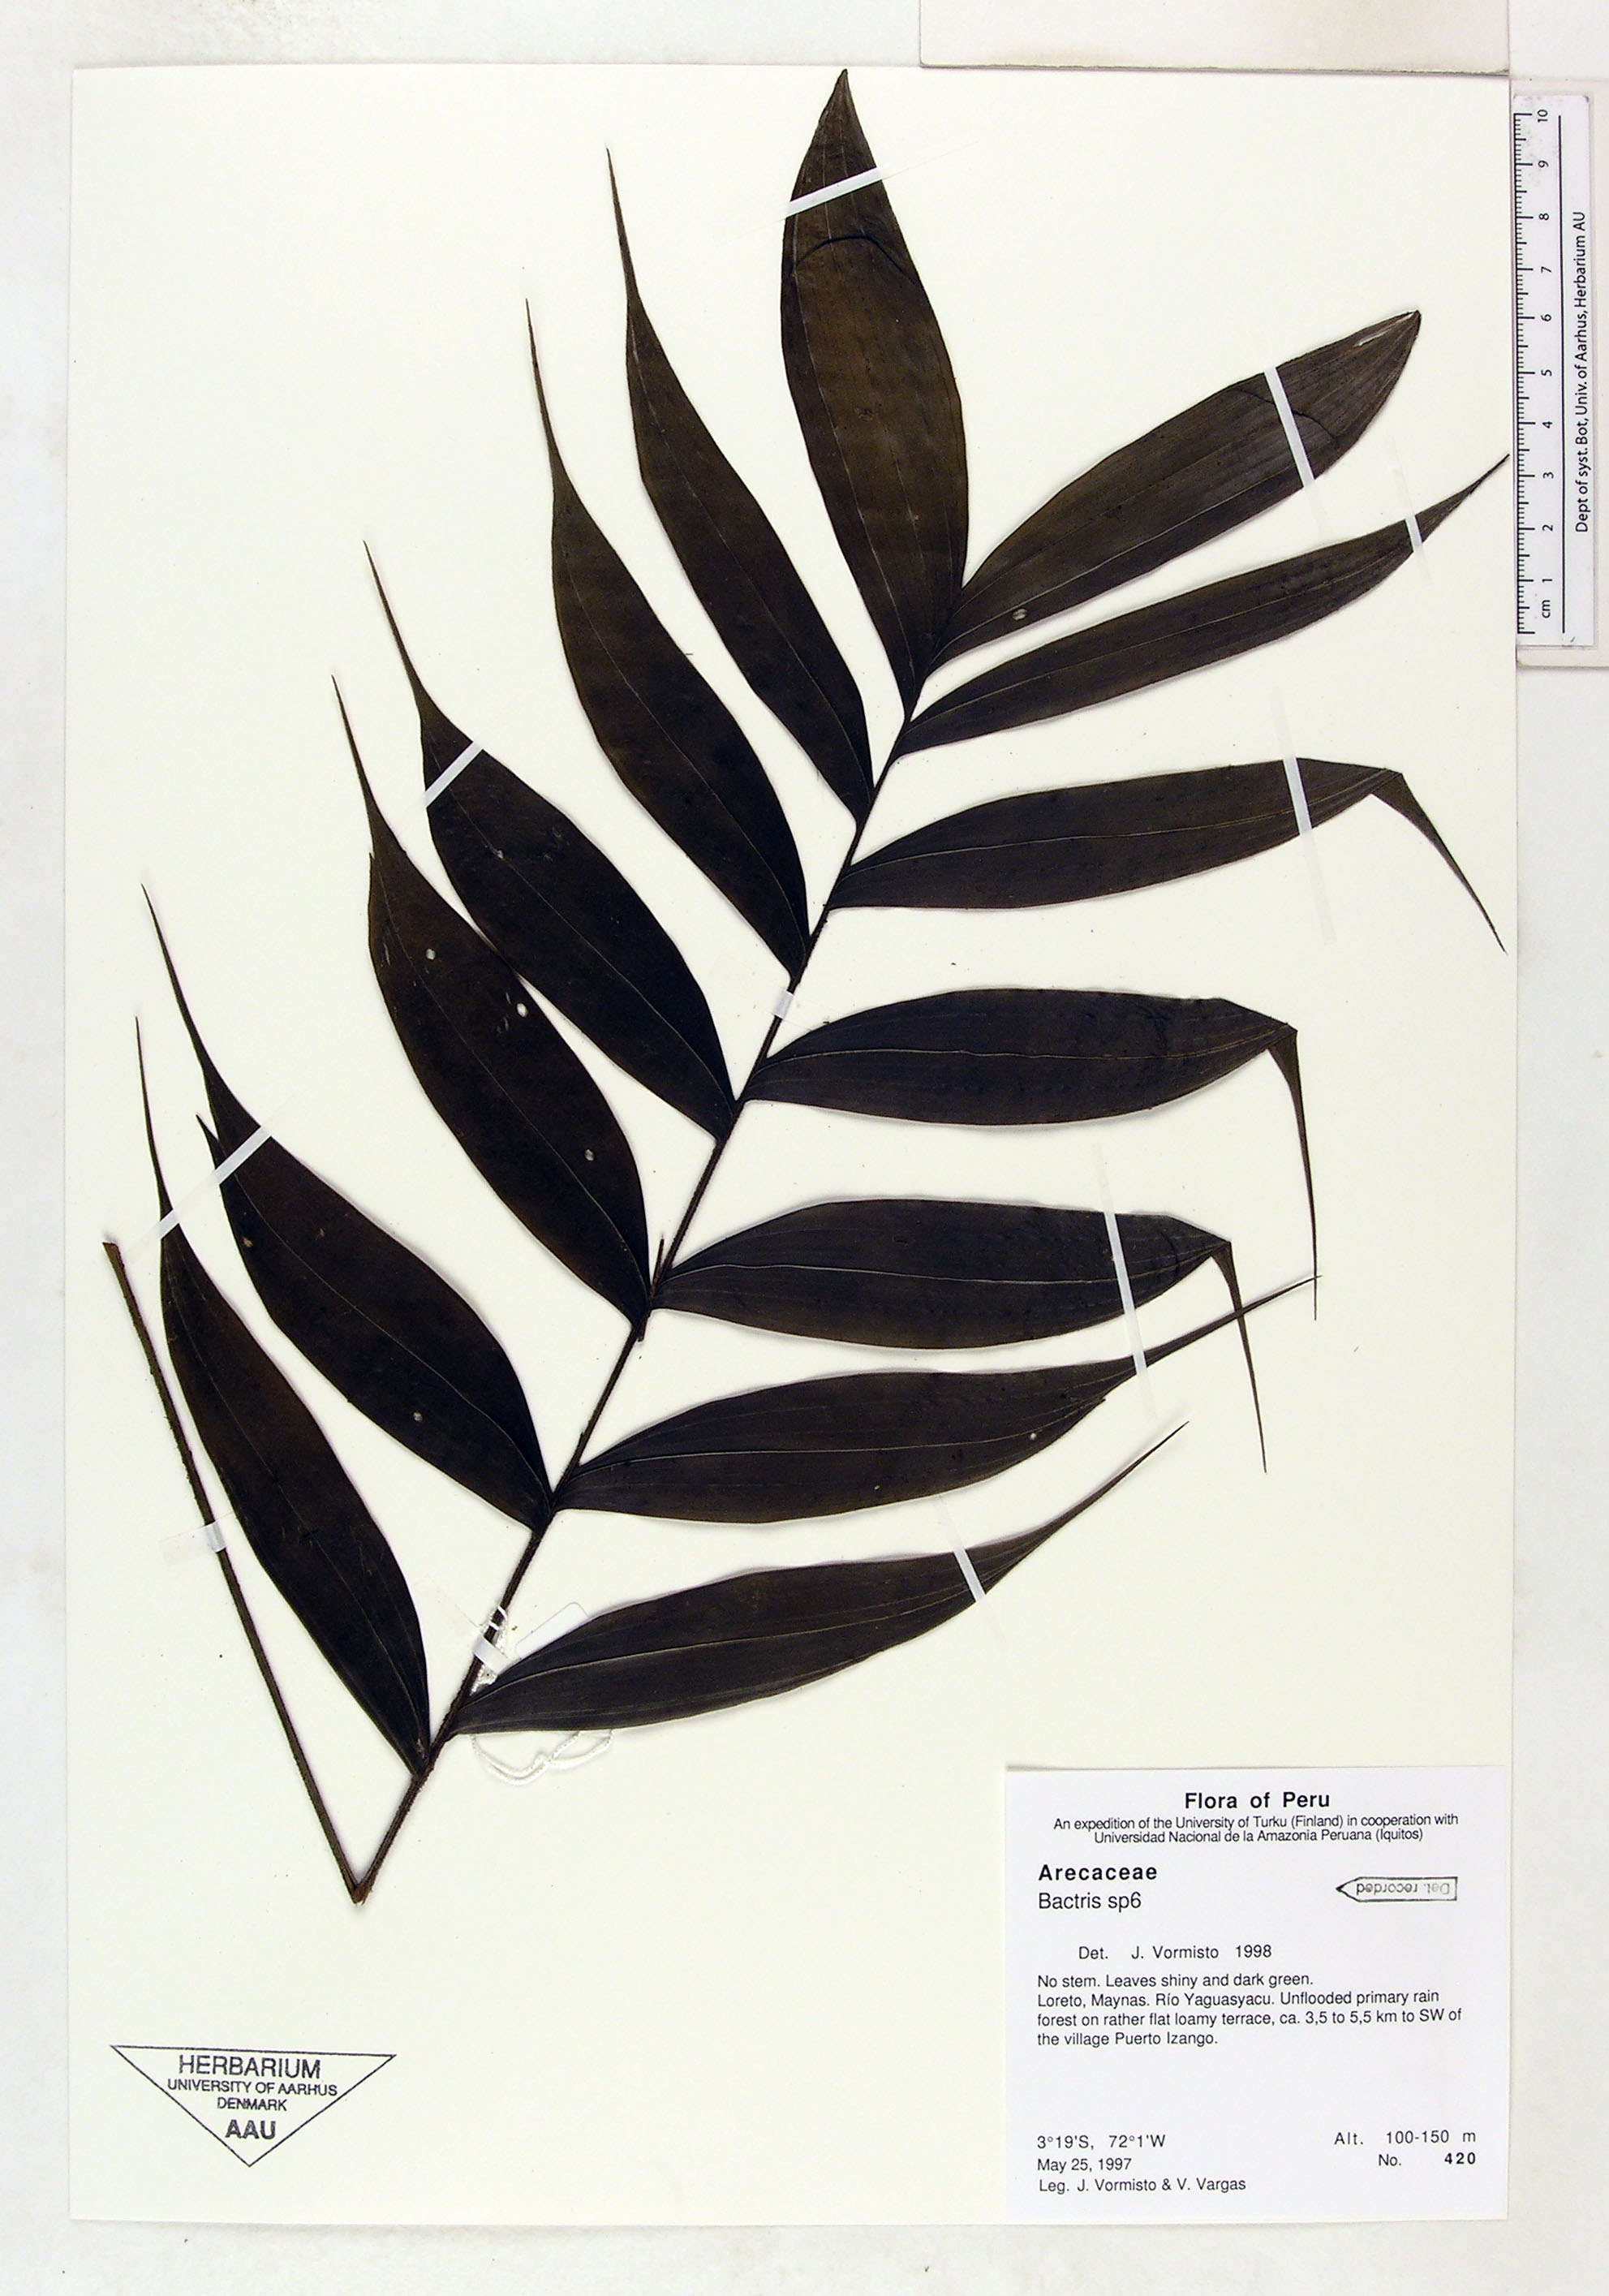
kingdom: Plantae
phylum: Tracheophyta
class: Liliopsida
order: Arecales
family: Arecaceae
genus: Bactris
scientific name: Bactris
